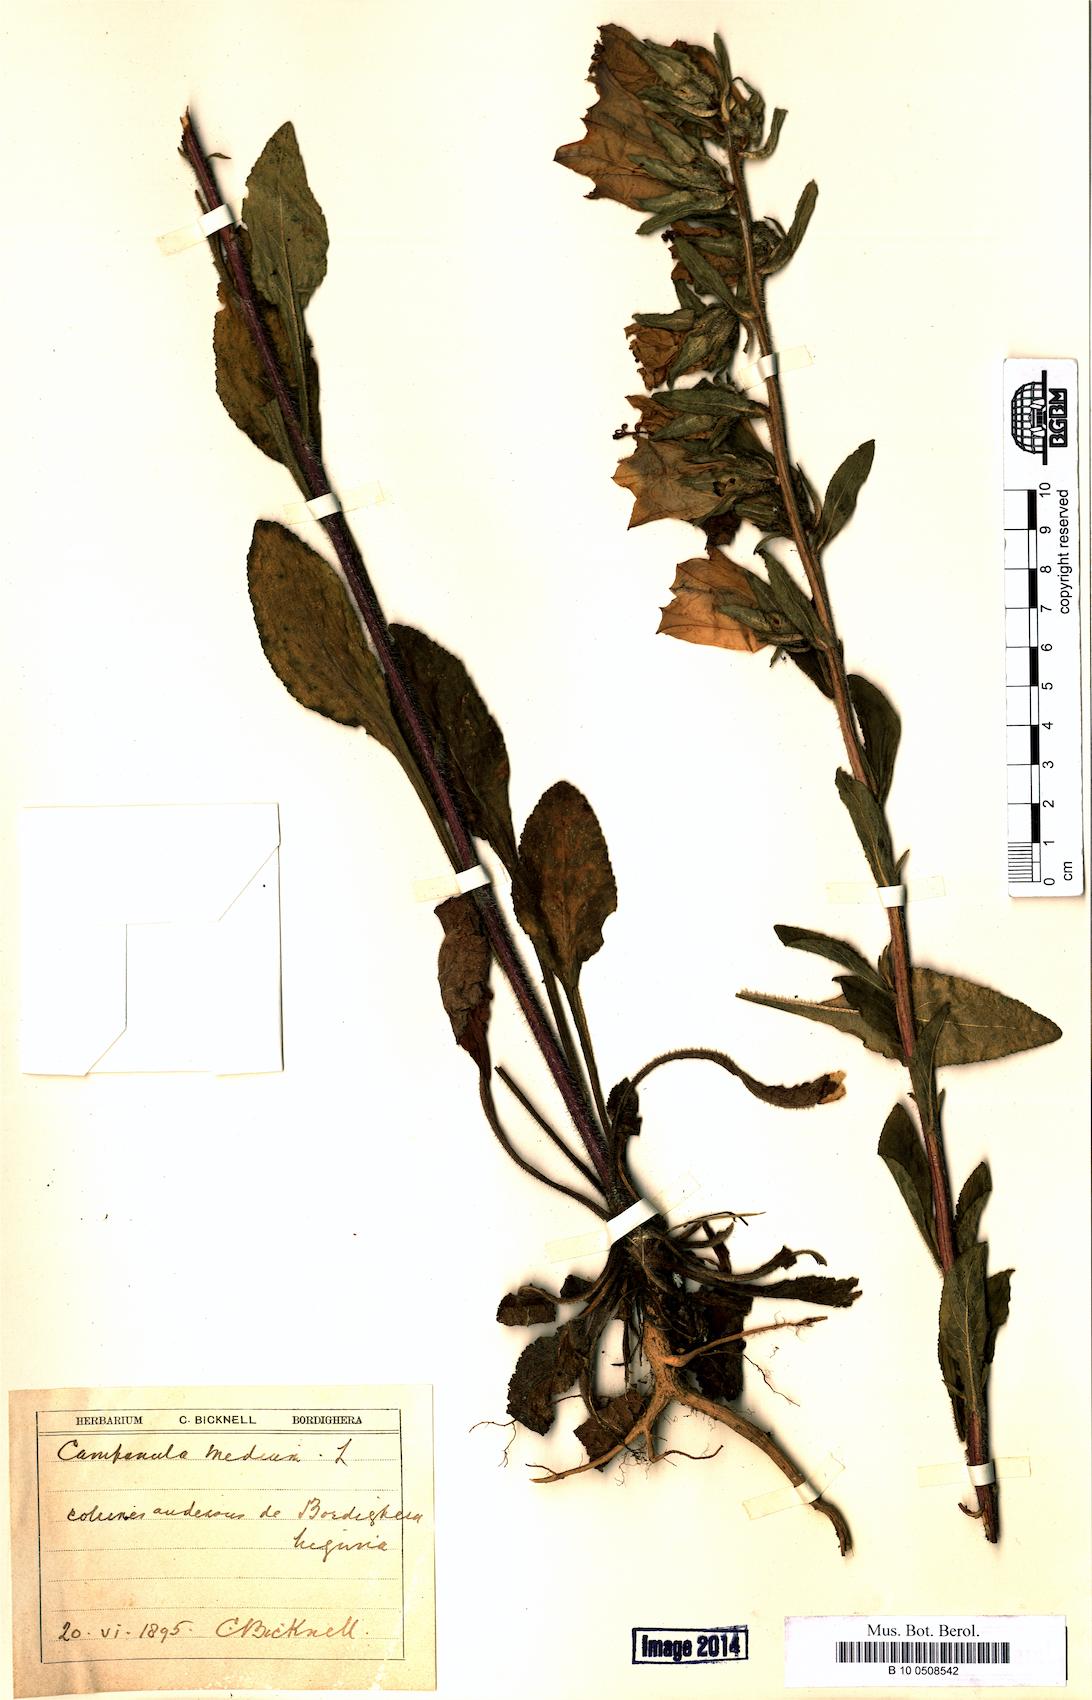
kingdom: Plantae
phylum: Tracheophyta
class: Magnoliopsida
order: Asterales
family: Campanulaceae
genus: Campanula
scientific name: Campanula medium
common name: Canterbury bells
